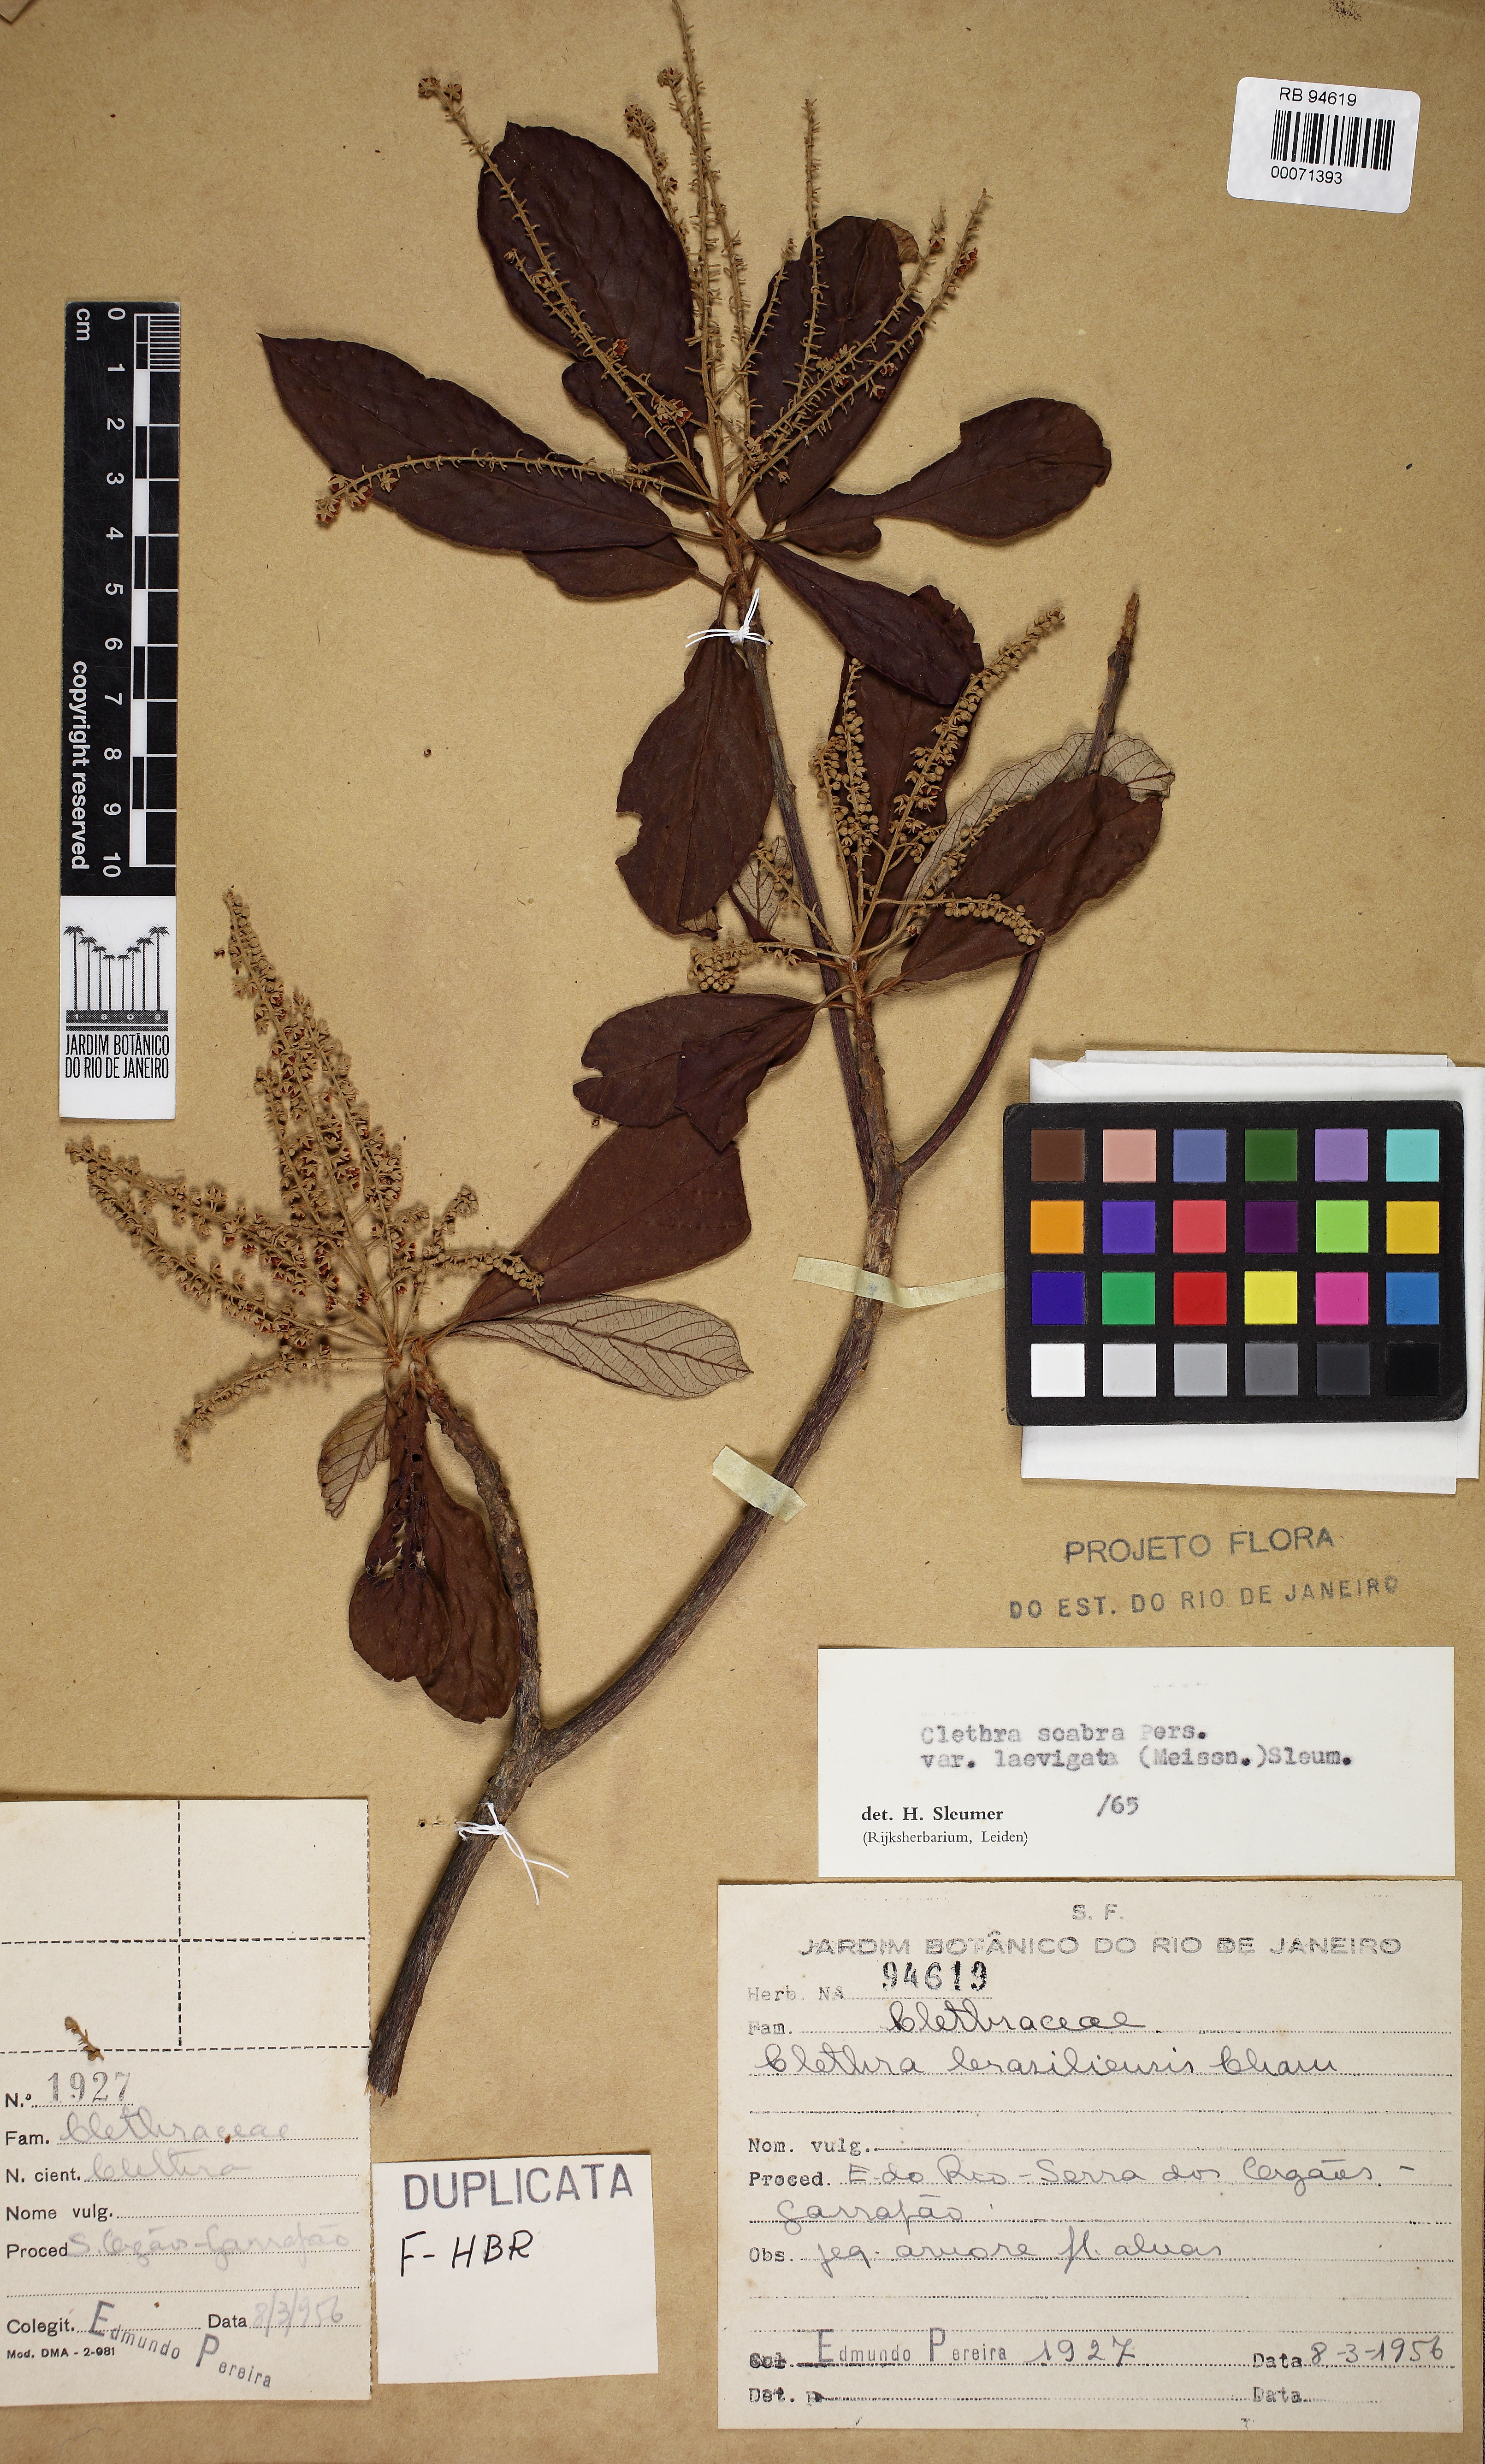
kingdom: Plantae
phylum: Tracheophyta
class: Magnoliopsida
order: Ericales
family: Clethraceae
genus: Clethra
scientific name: Clethra scabra
